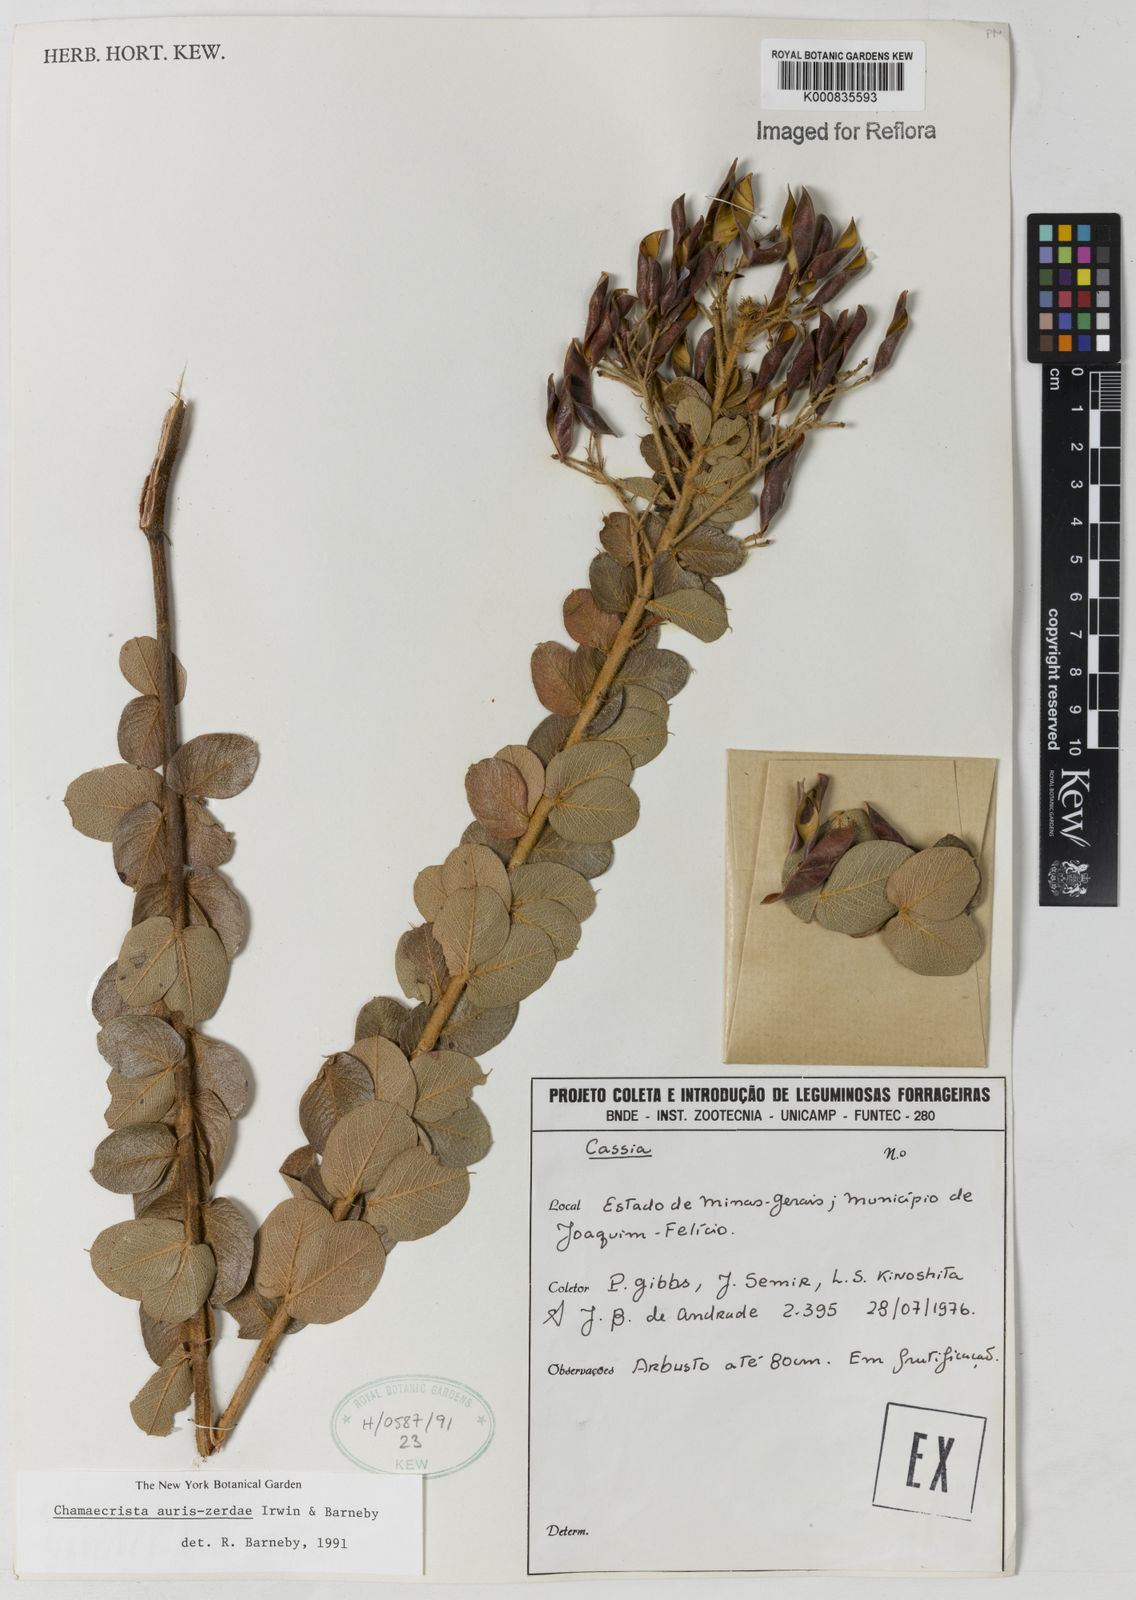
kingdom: Plantae
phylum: Tracheophyta
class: Magnoliopsida
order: Fabales
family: Fabaceae
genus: Chamaecrista
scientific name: Chamaecrista auris-zerdae
